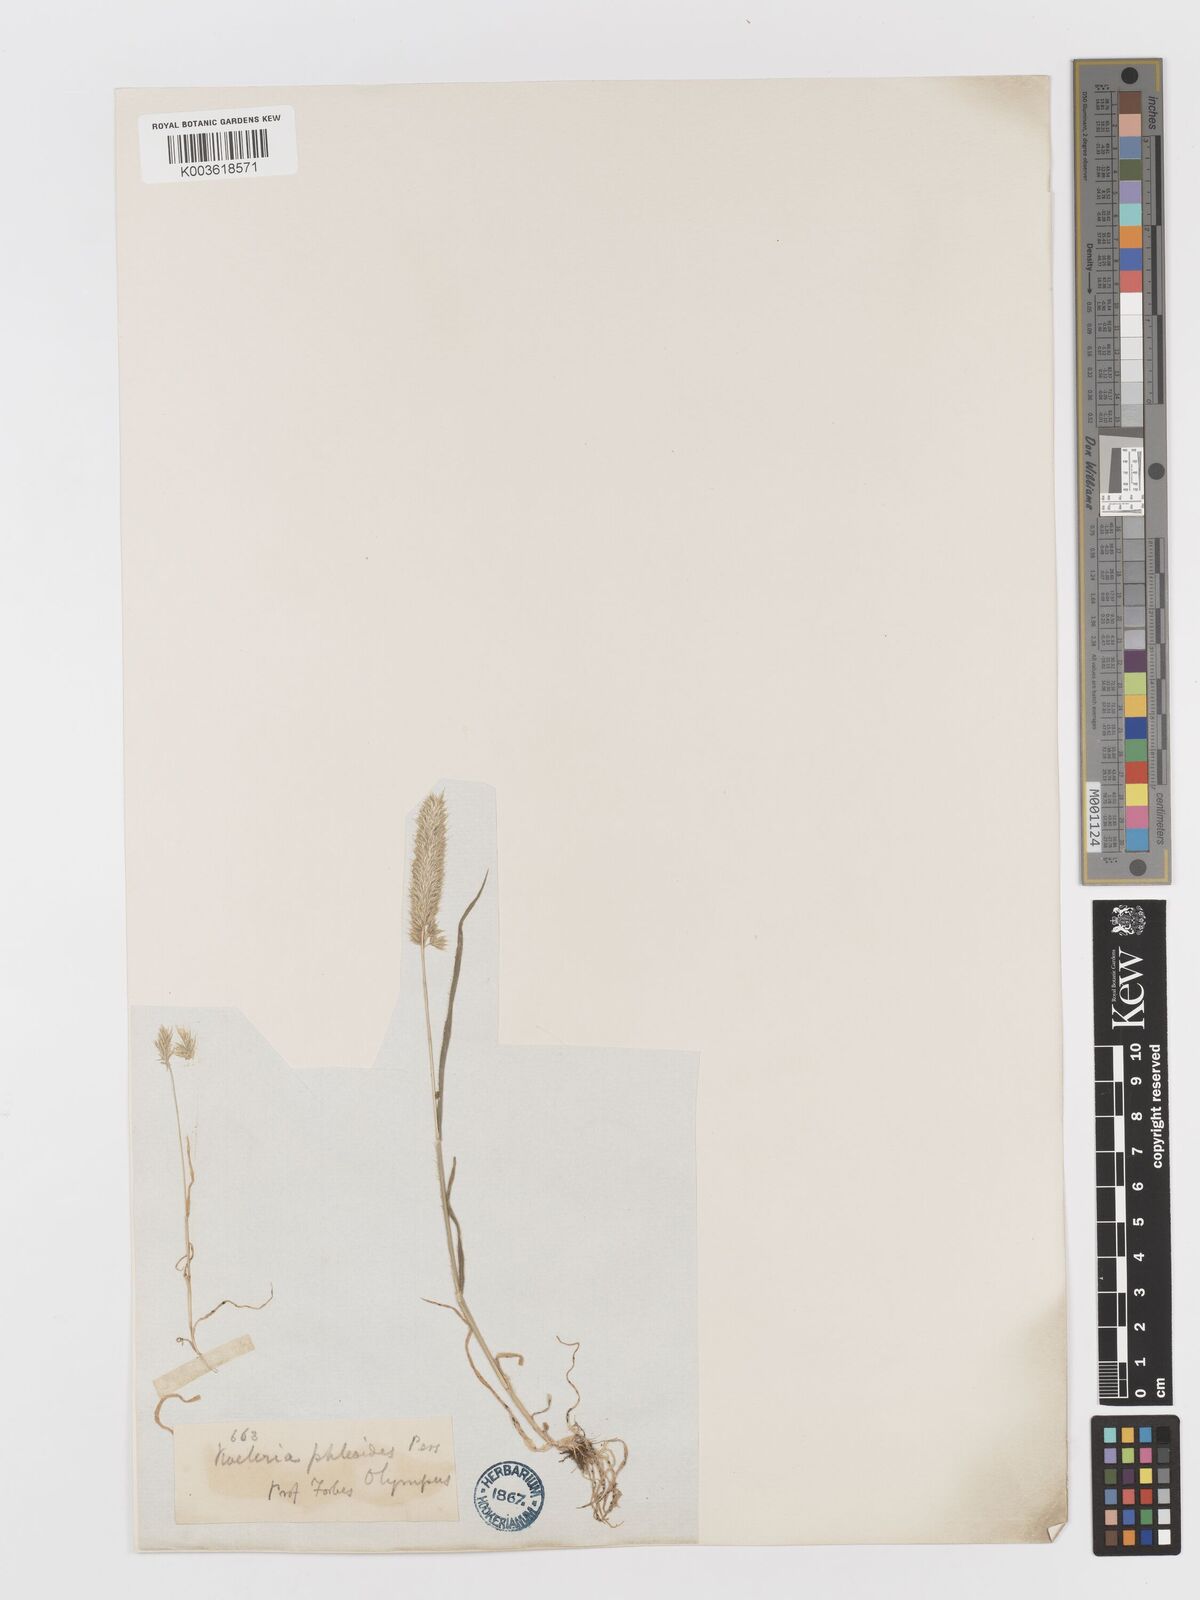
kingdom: Plantae
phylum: Tracheophyta
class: Liliopsida
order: Poales
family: Poaceae
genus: Rostraria
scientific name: Rostraria cristata
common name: Mediterranean hair-grass
